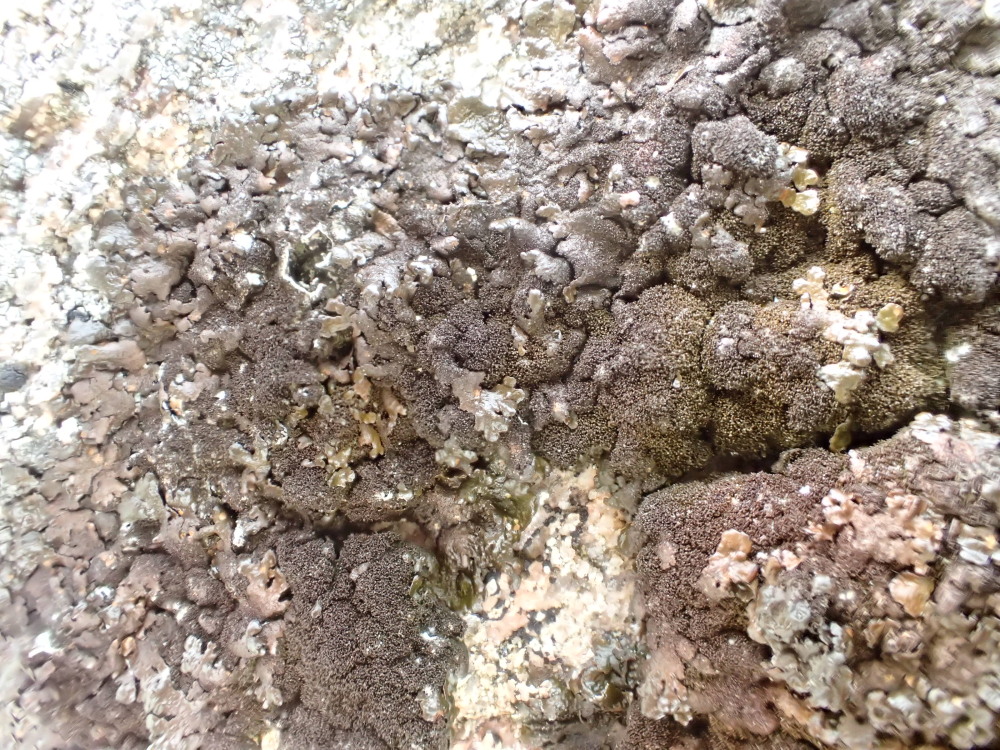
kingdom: Fungi
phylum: Ascomycota
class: Lecanoromycetes
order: Lecanorales
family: Parmeliaceae
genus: Melanelixia
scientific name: Melanelixia fuliginosa
